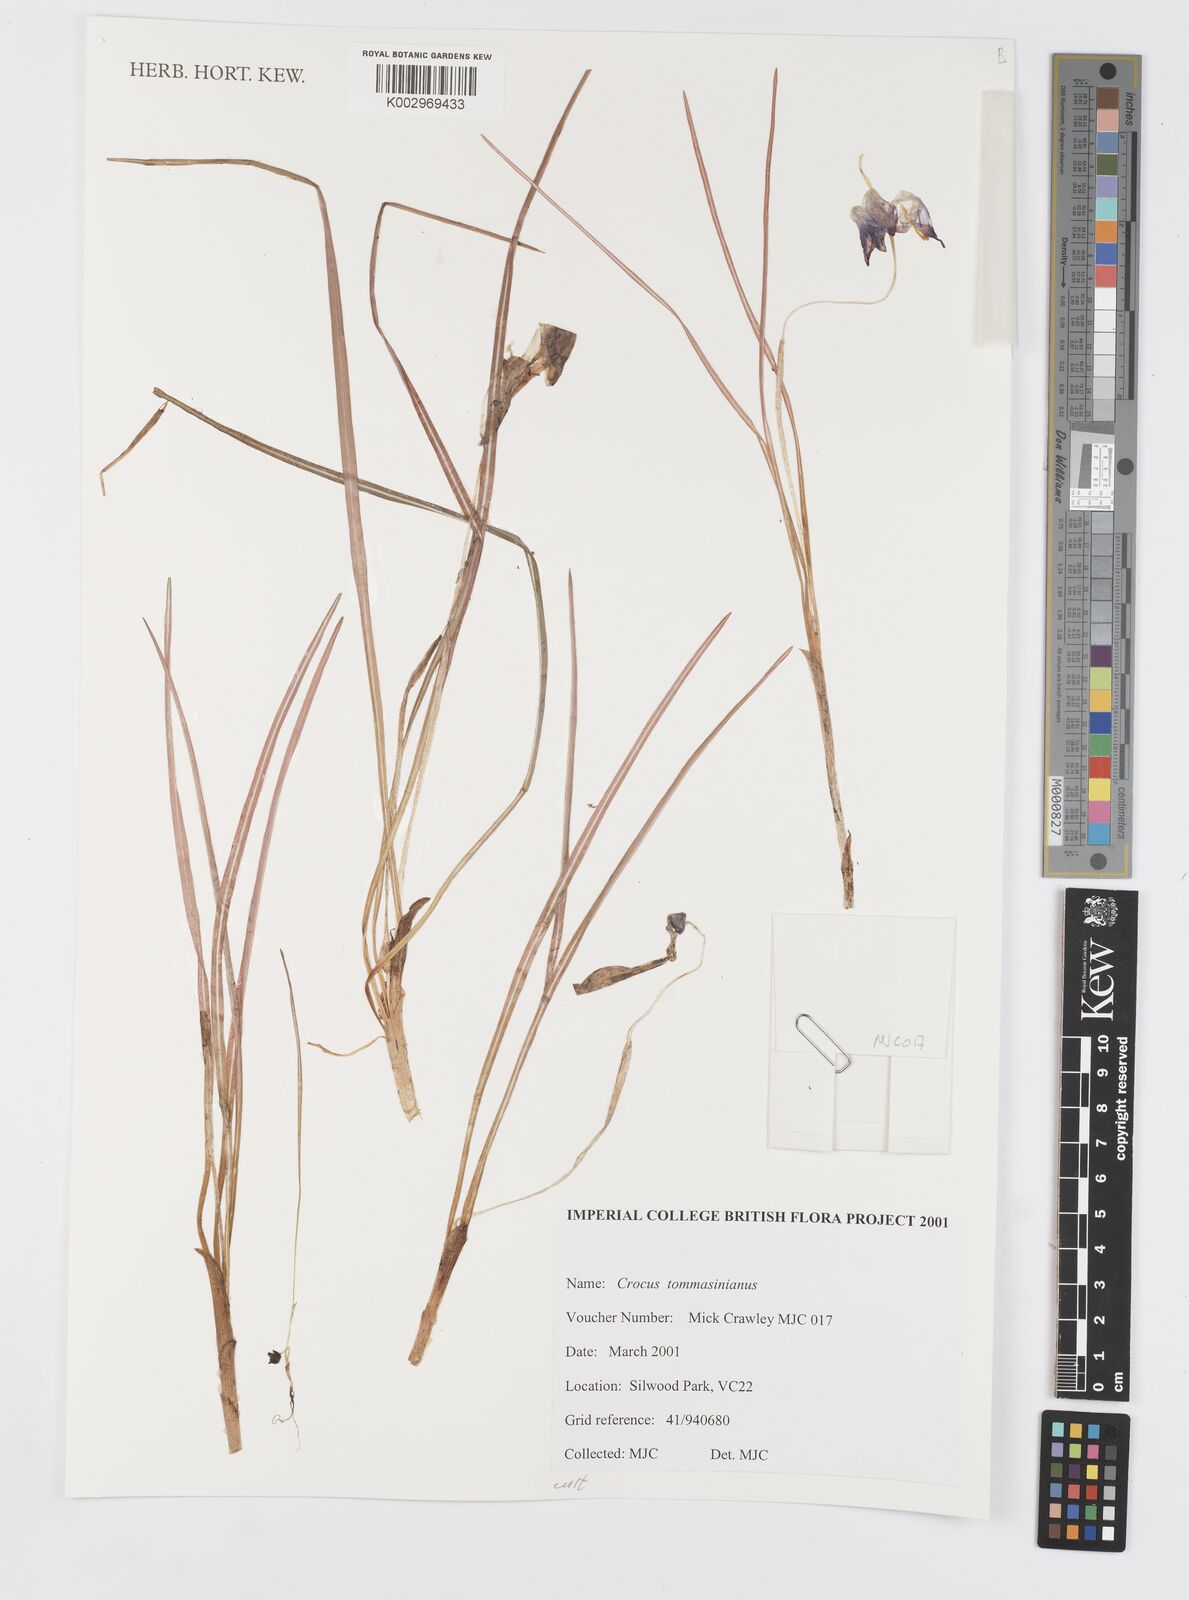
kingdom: Plantae
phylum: Tracheophyta
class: Liliopsida
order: Asparagales
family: Iridaceae
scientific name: Iridaceae
